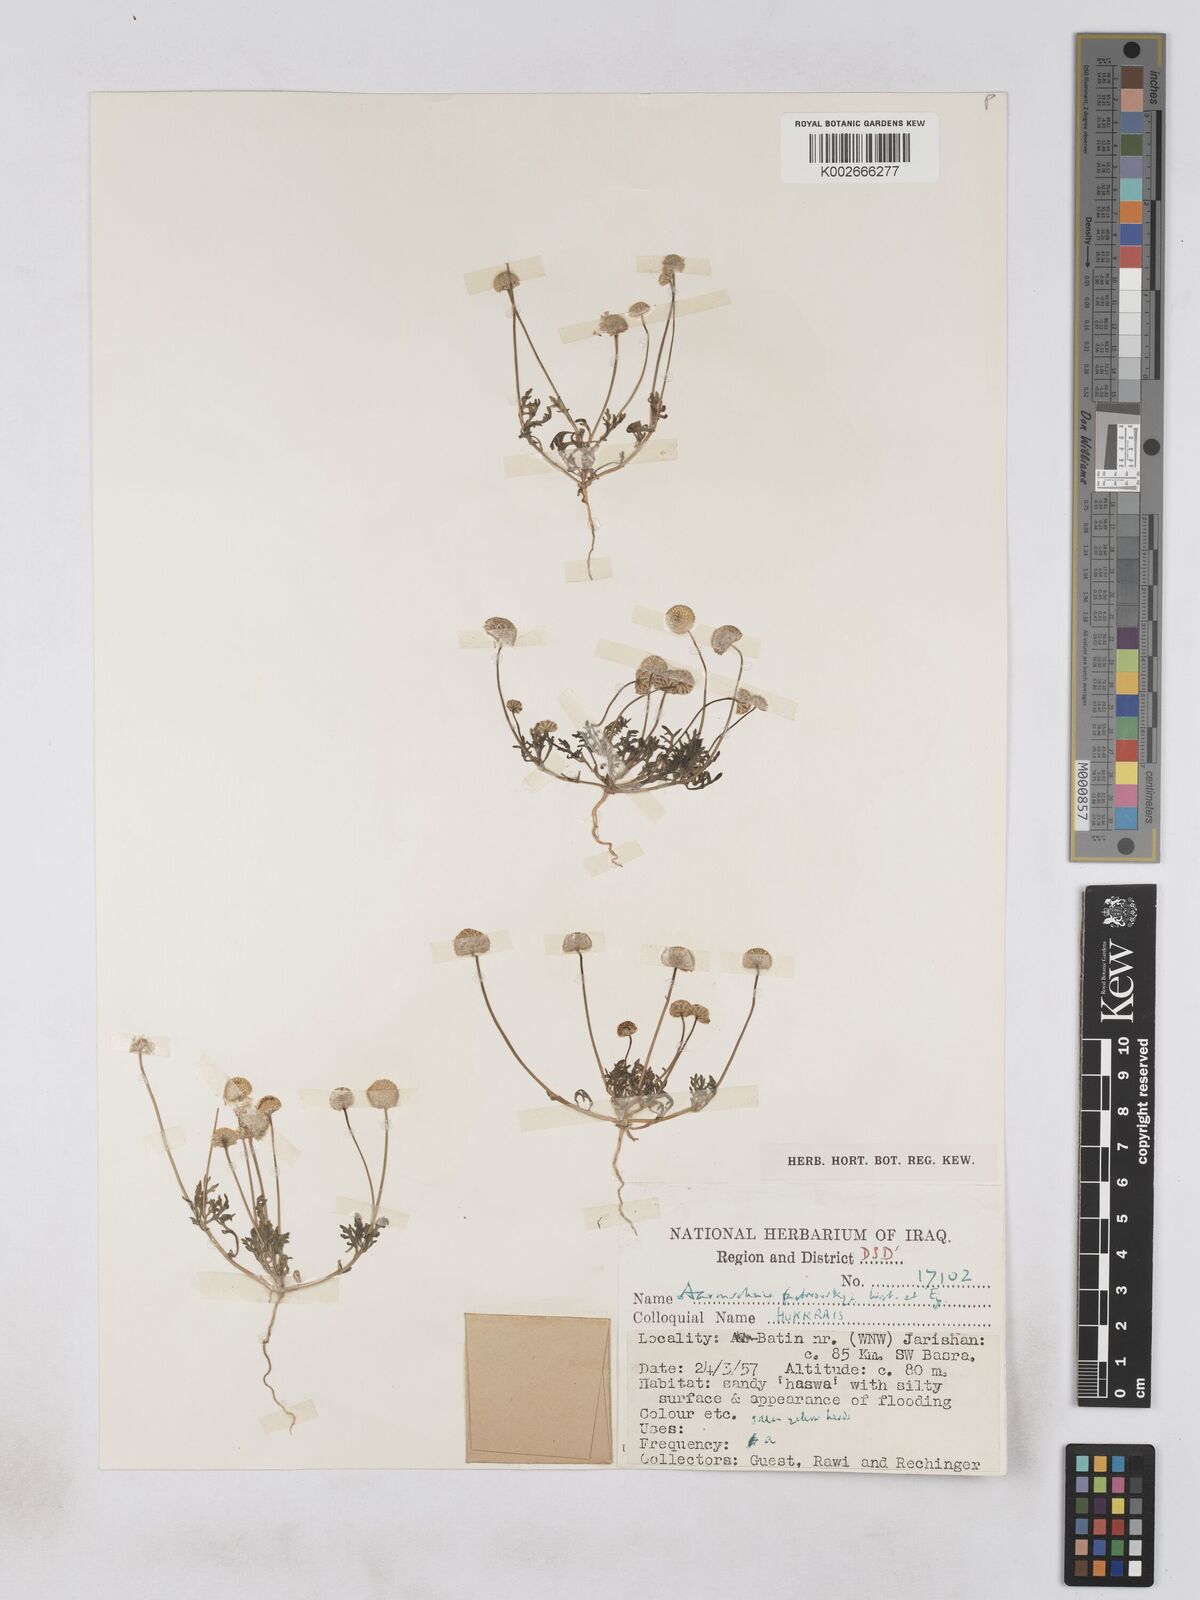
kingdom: Plantae
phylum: Tracheophyta
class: Magnoliopsida
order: Asterales
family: Asteraceae
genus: Otoglyphis
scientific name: Otoglyphis factorovskyi
